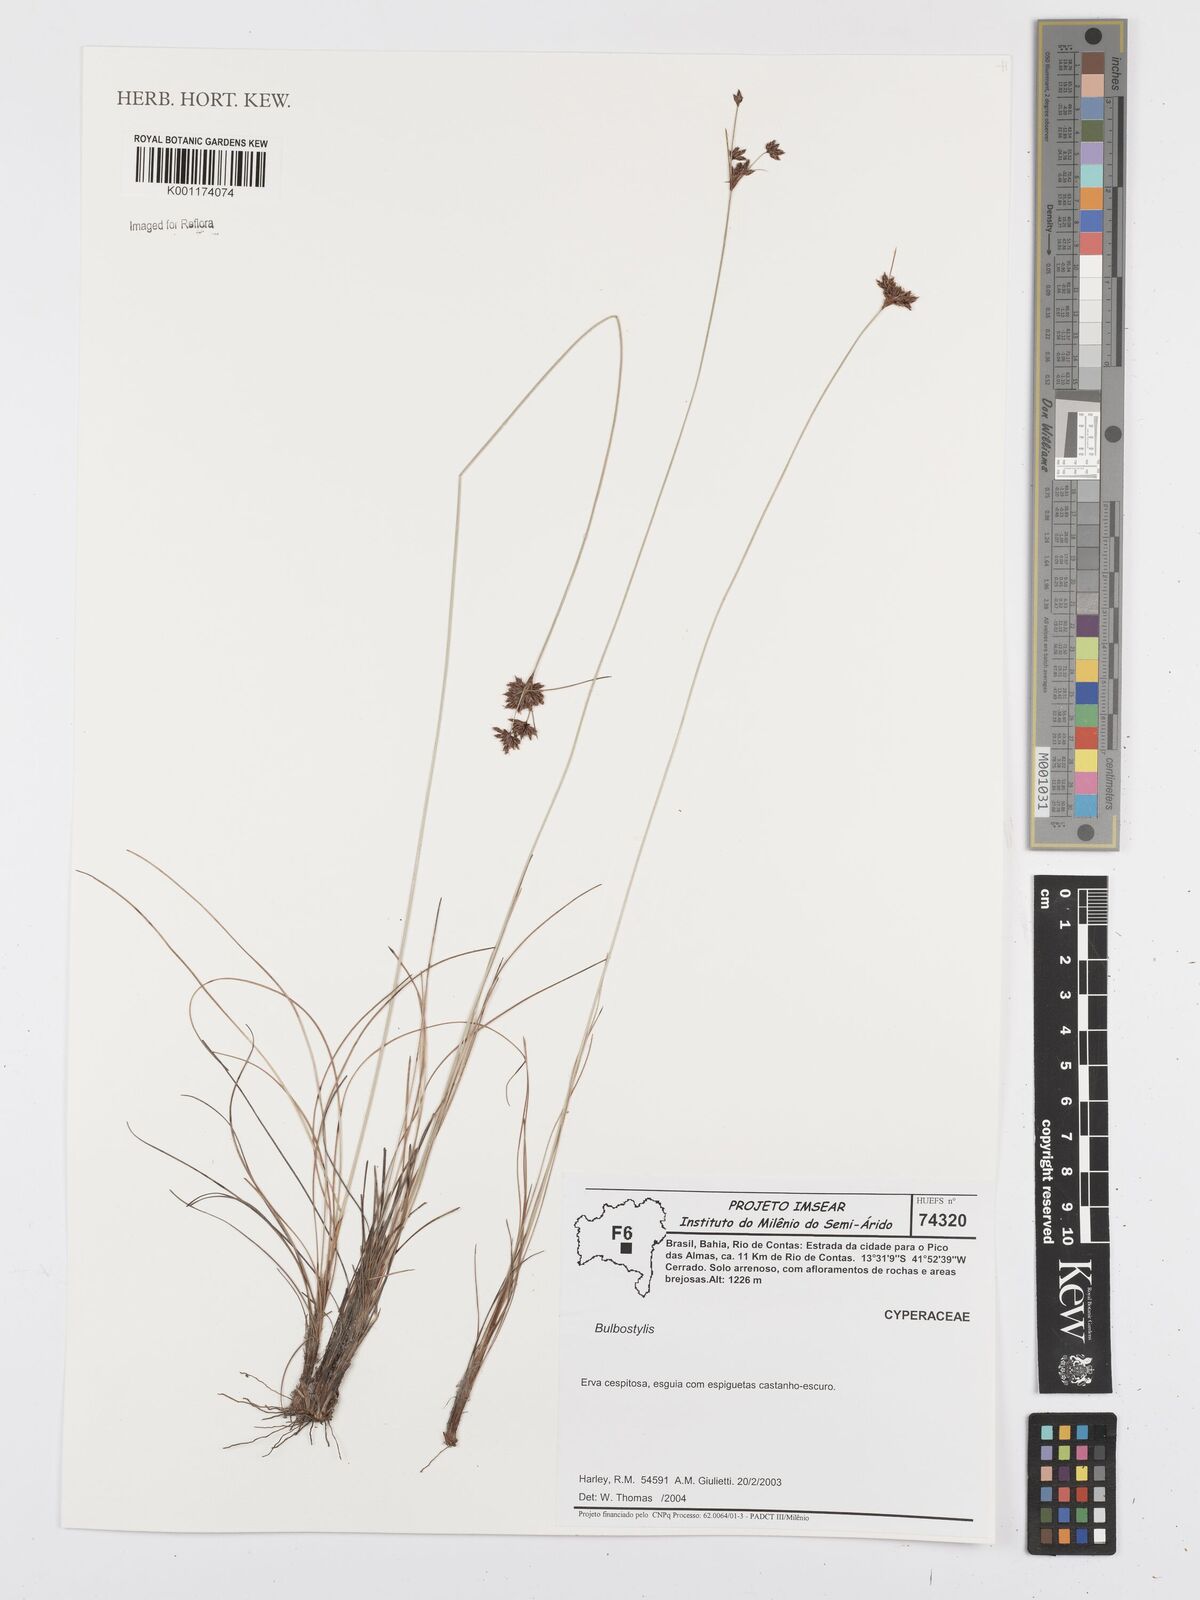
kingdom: Plantae
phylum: Tracheophyta
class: Liliopsida
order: Poales
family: Cyperaceae
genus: Bulbostylis
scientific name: Bulbostylis
